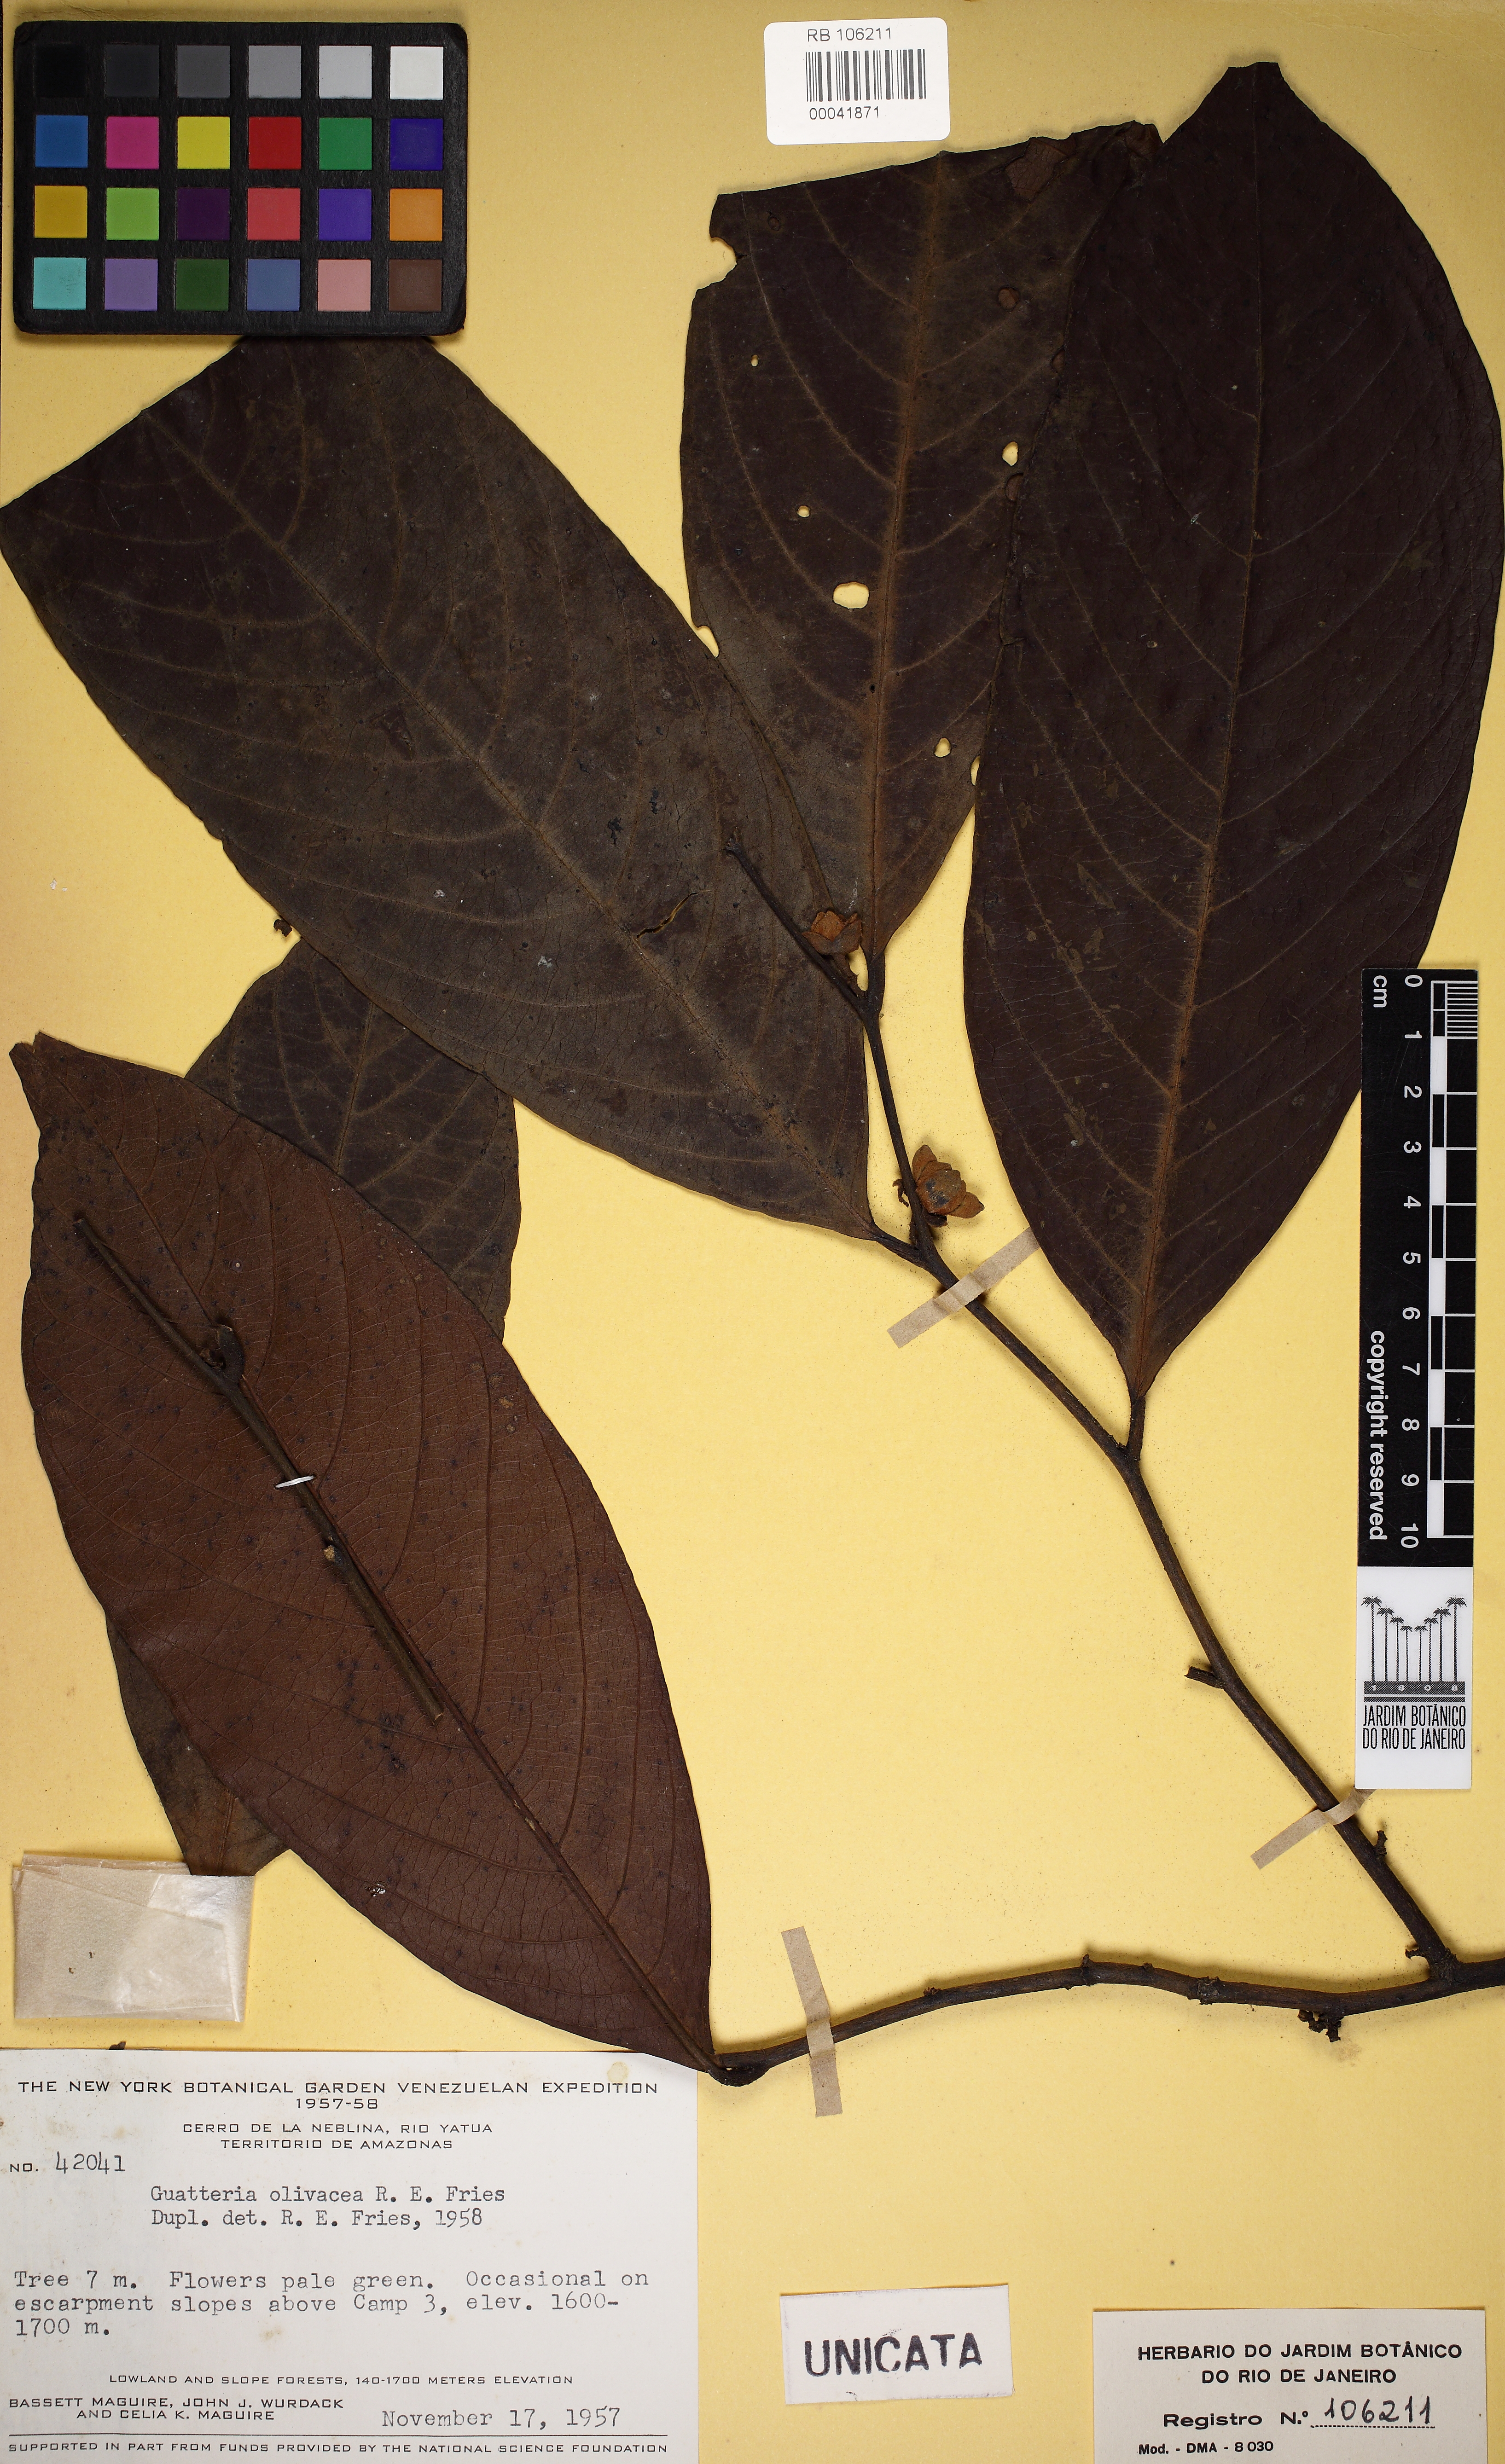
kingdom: Plantae
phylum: Tracheophyta
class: Magnoliopsida
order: Magnoliales
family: Annonaceae
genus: Guatteria
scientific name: Guatteria olivacea
